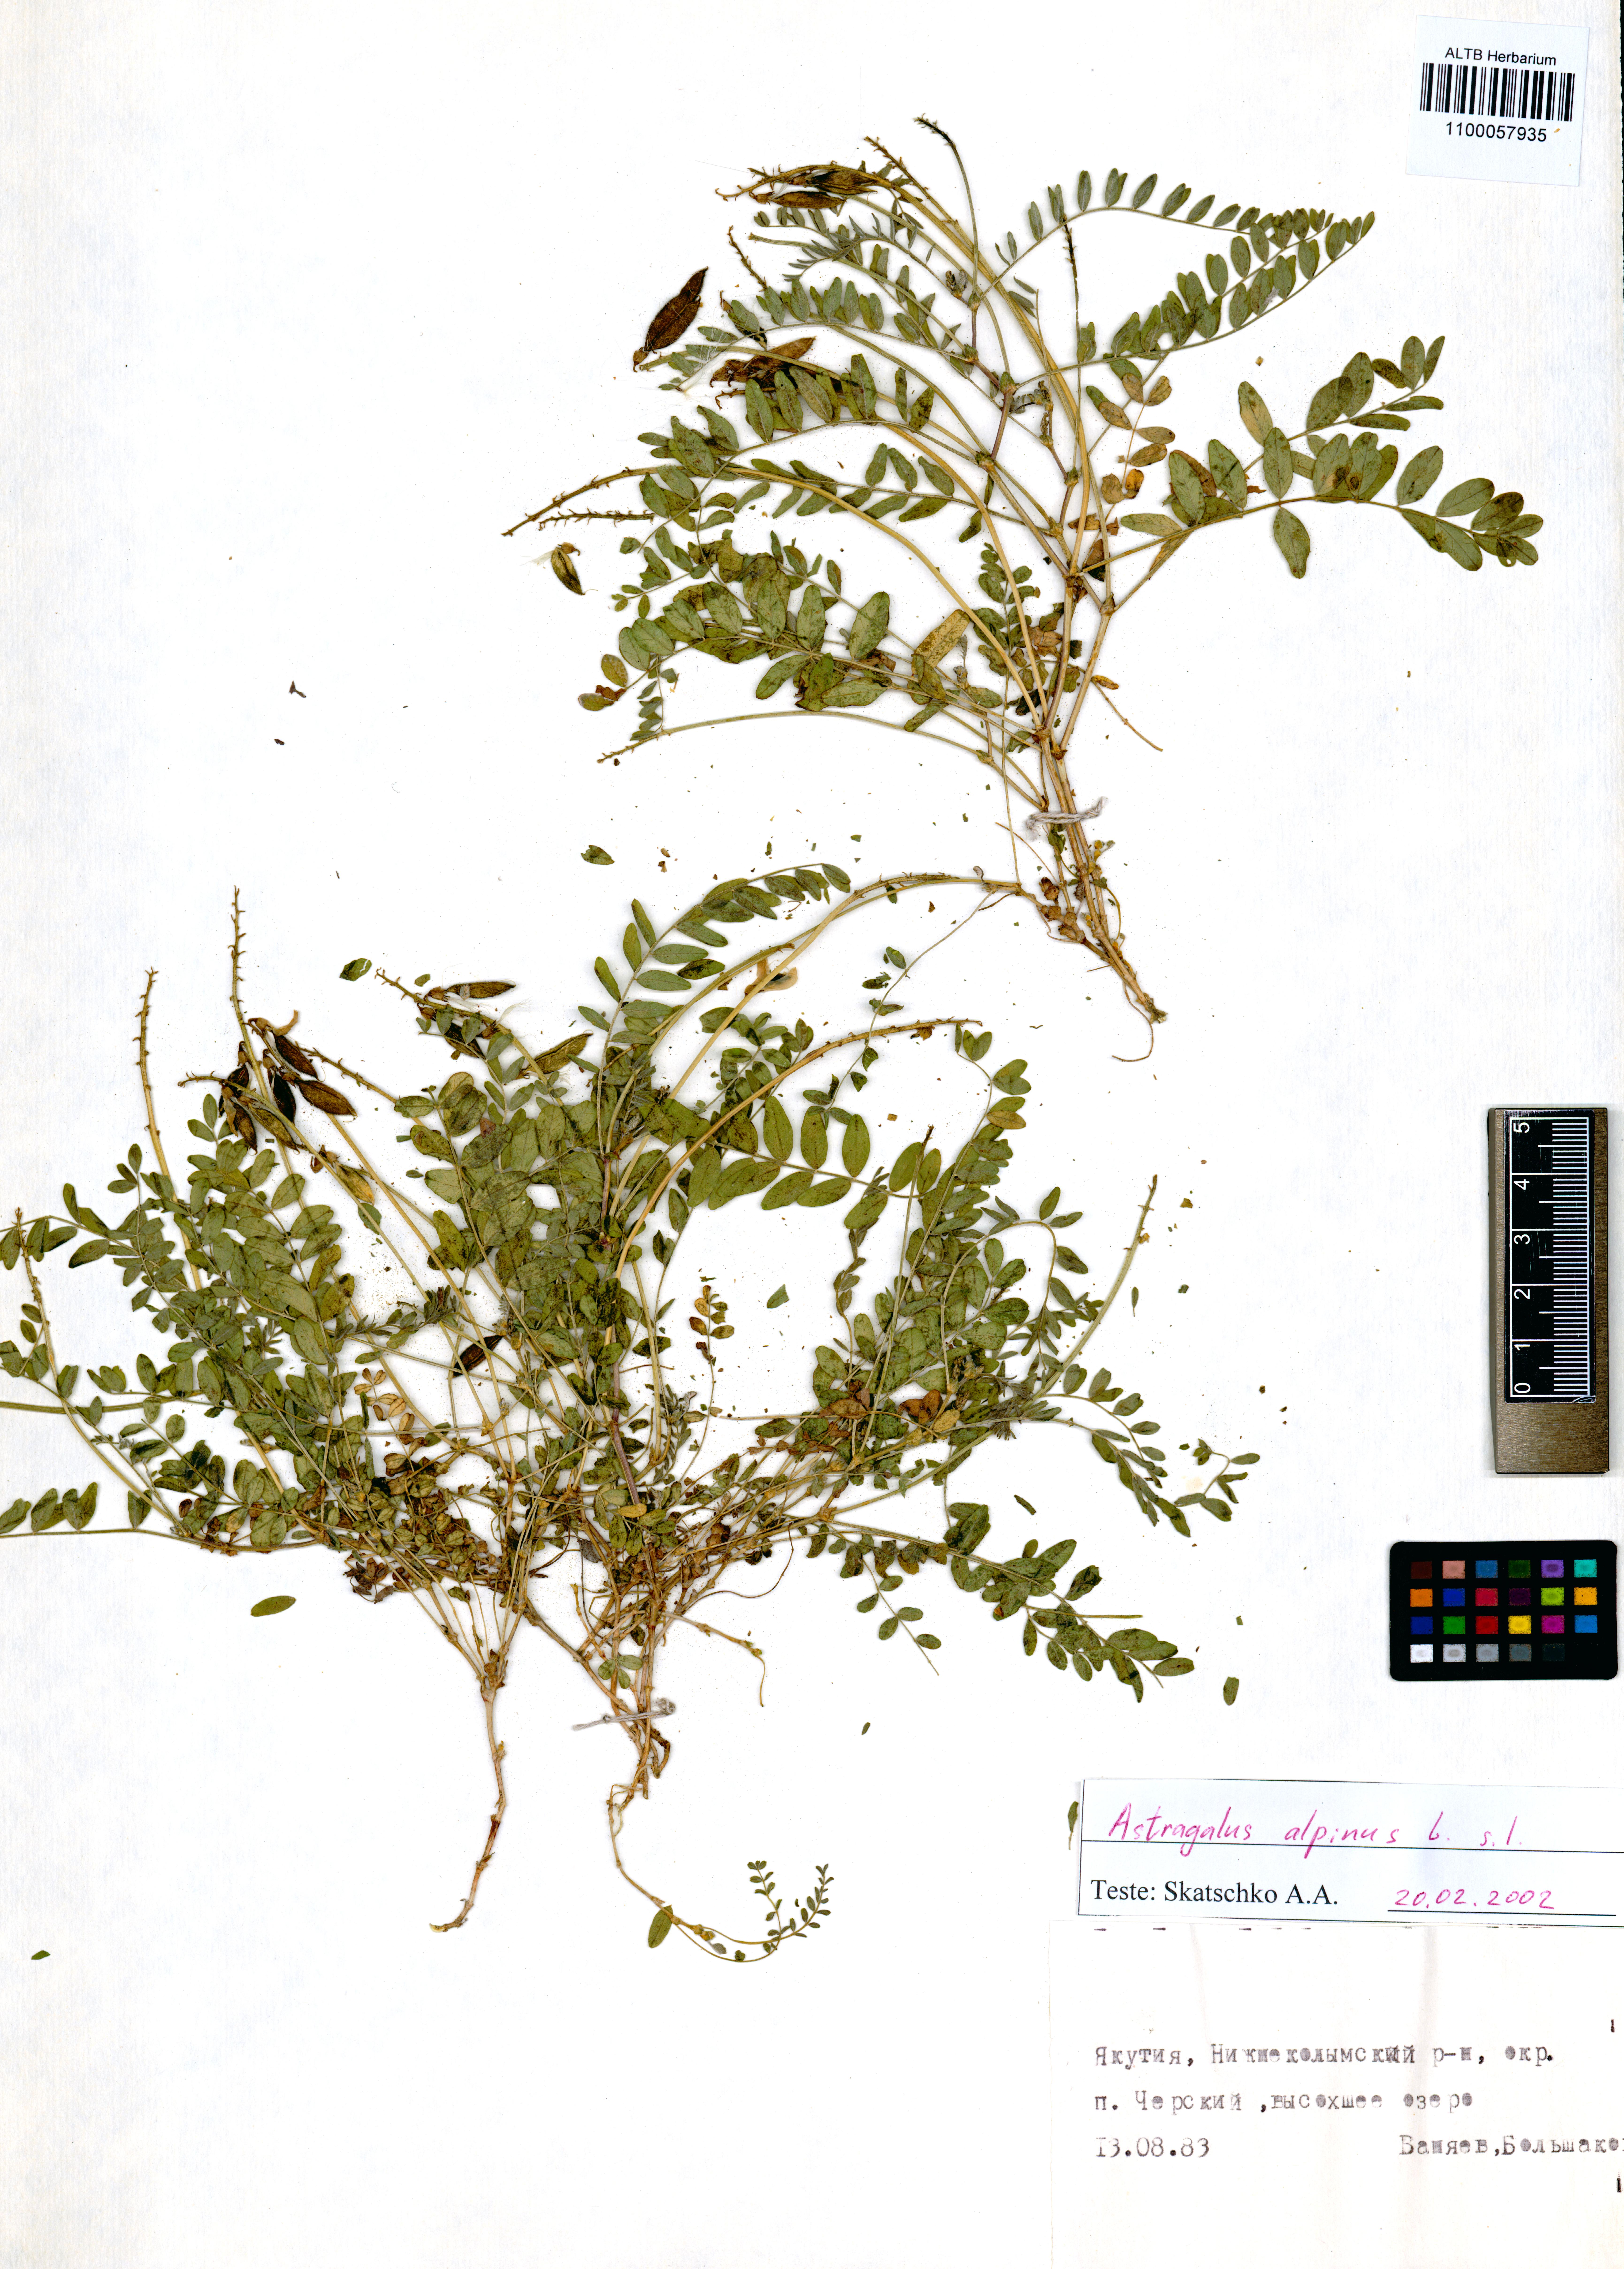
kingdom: Plantae
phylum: Tracheophyta
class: Magnoliopsida
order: Fabales
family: Fabaceae
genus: Astragalus
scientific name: Astragalus alpinus
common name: Alpine milk-vetch
